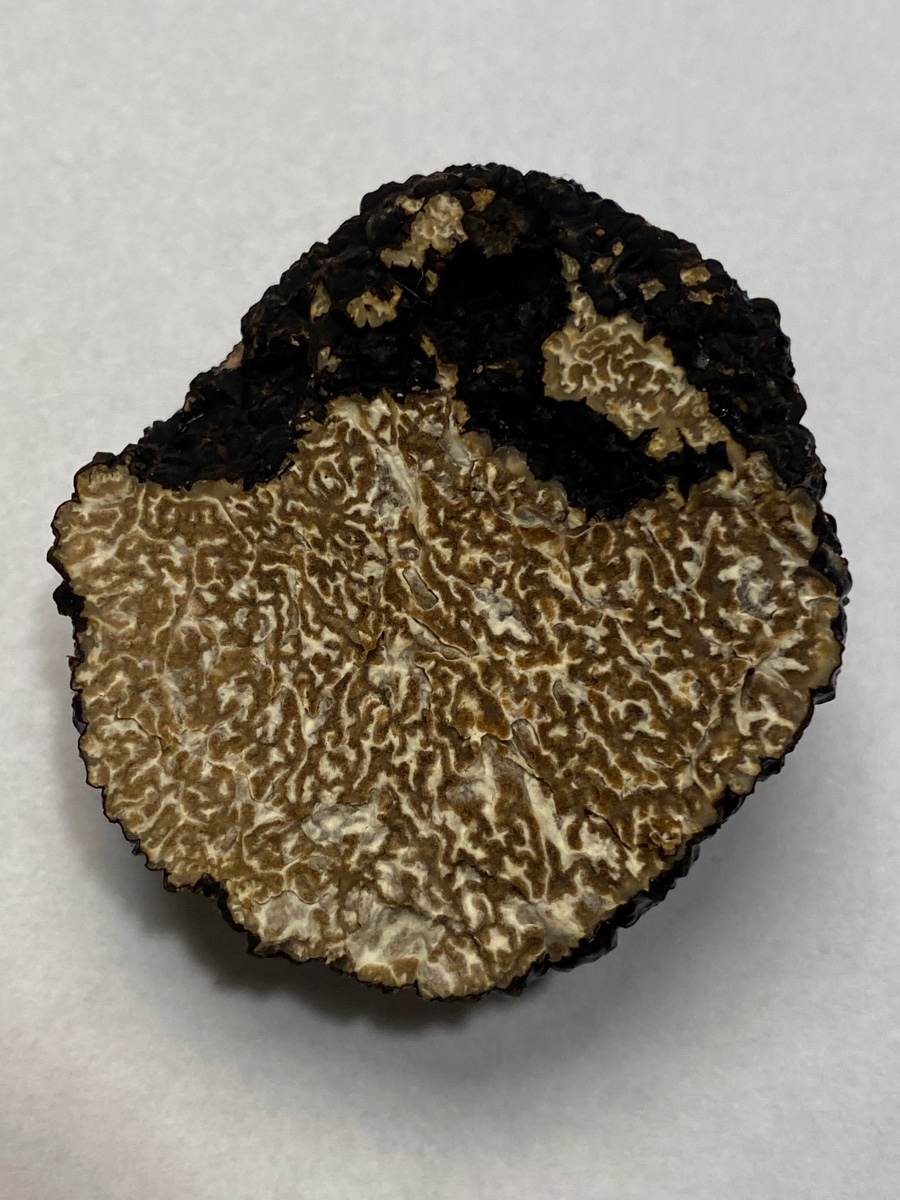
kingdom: Fungi
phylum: Ascomycota
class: Pezizomycetes
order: Pezizales
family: Tuberaceae
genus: Tuber
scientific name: Tuber aestivum
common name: sommer-trøffel
